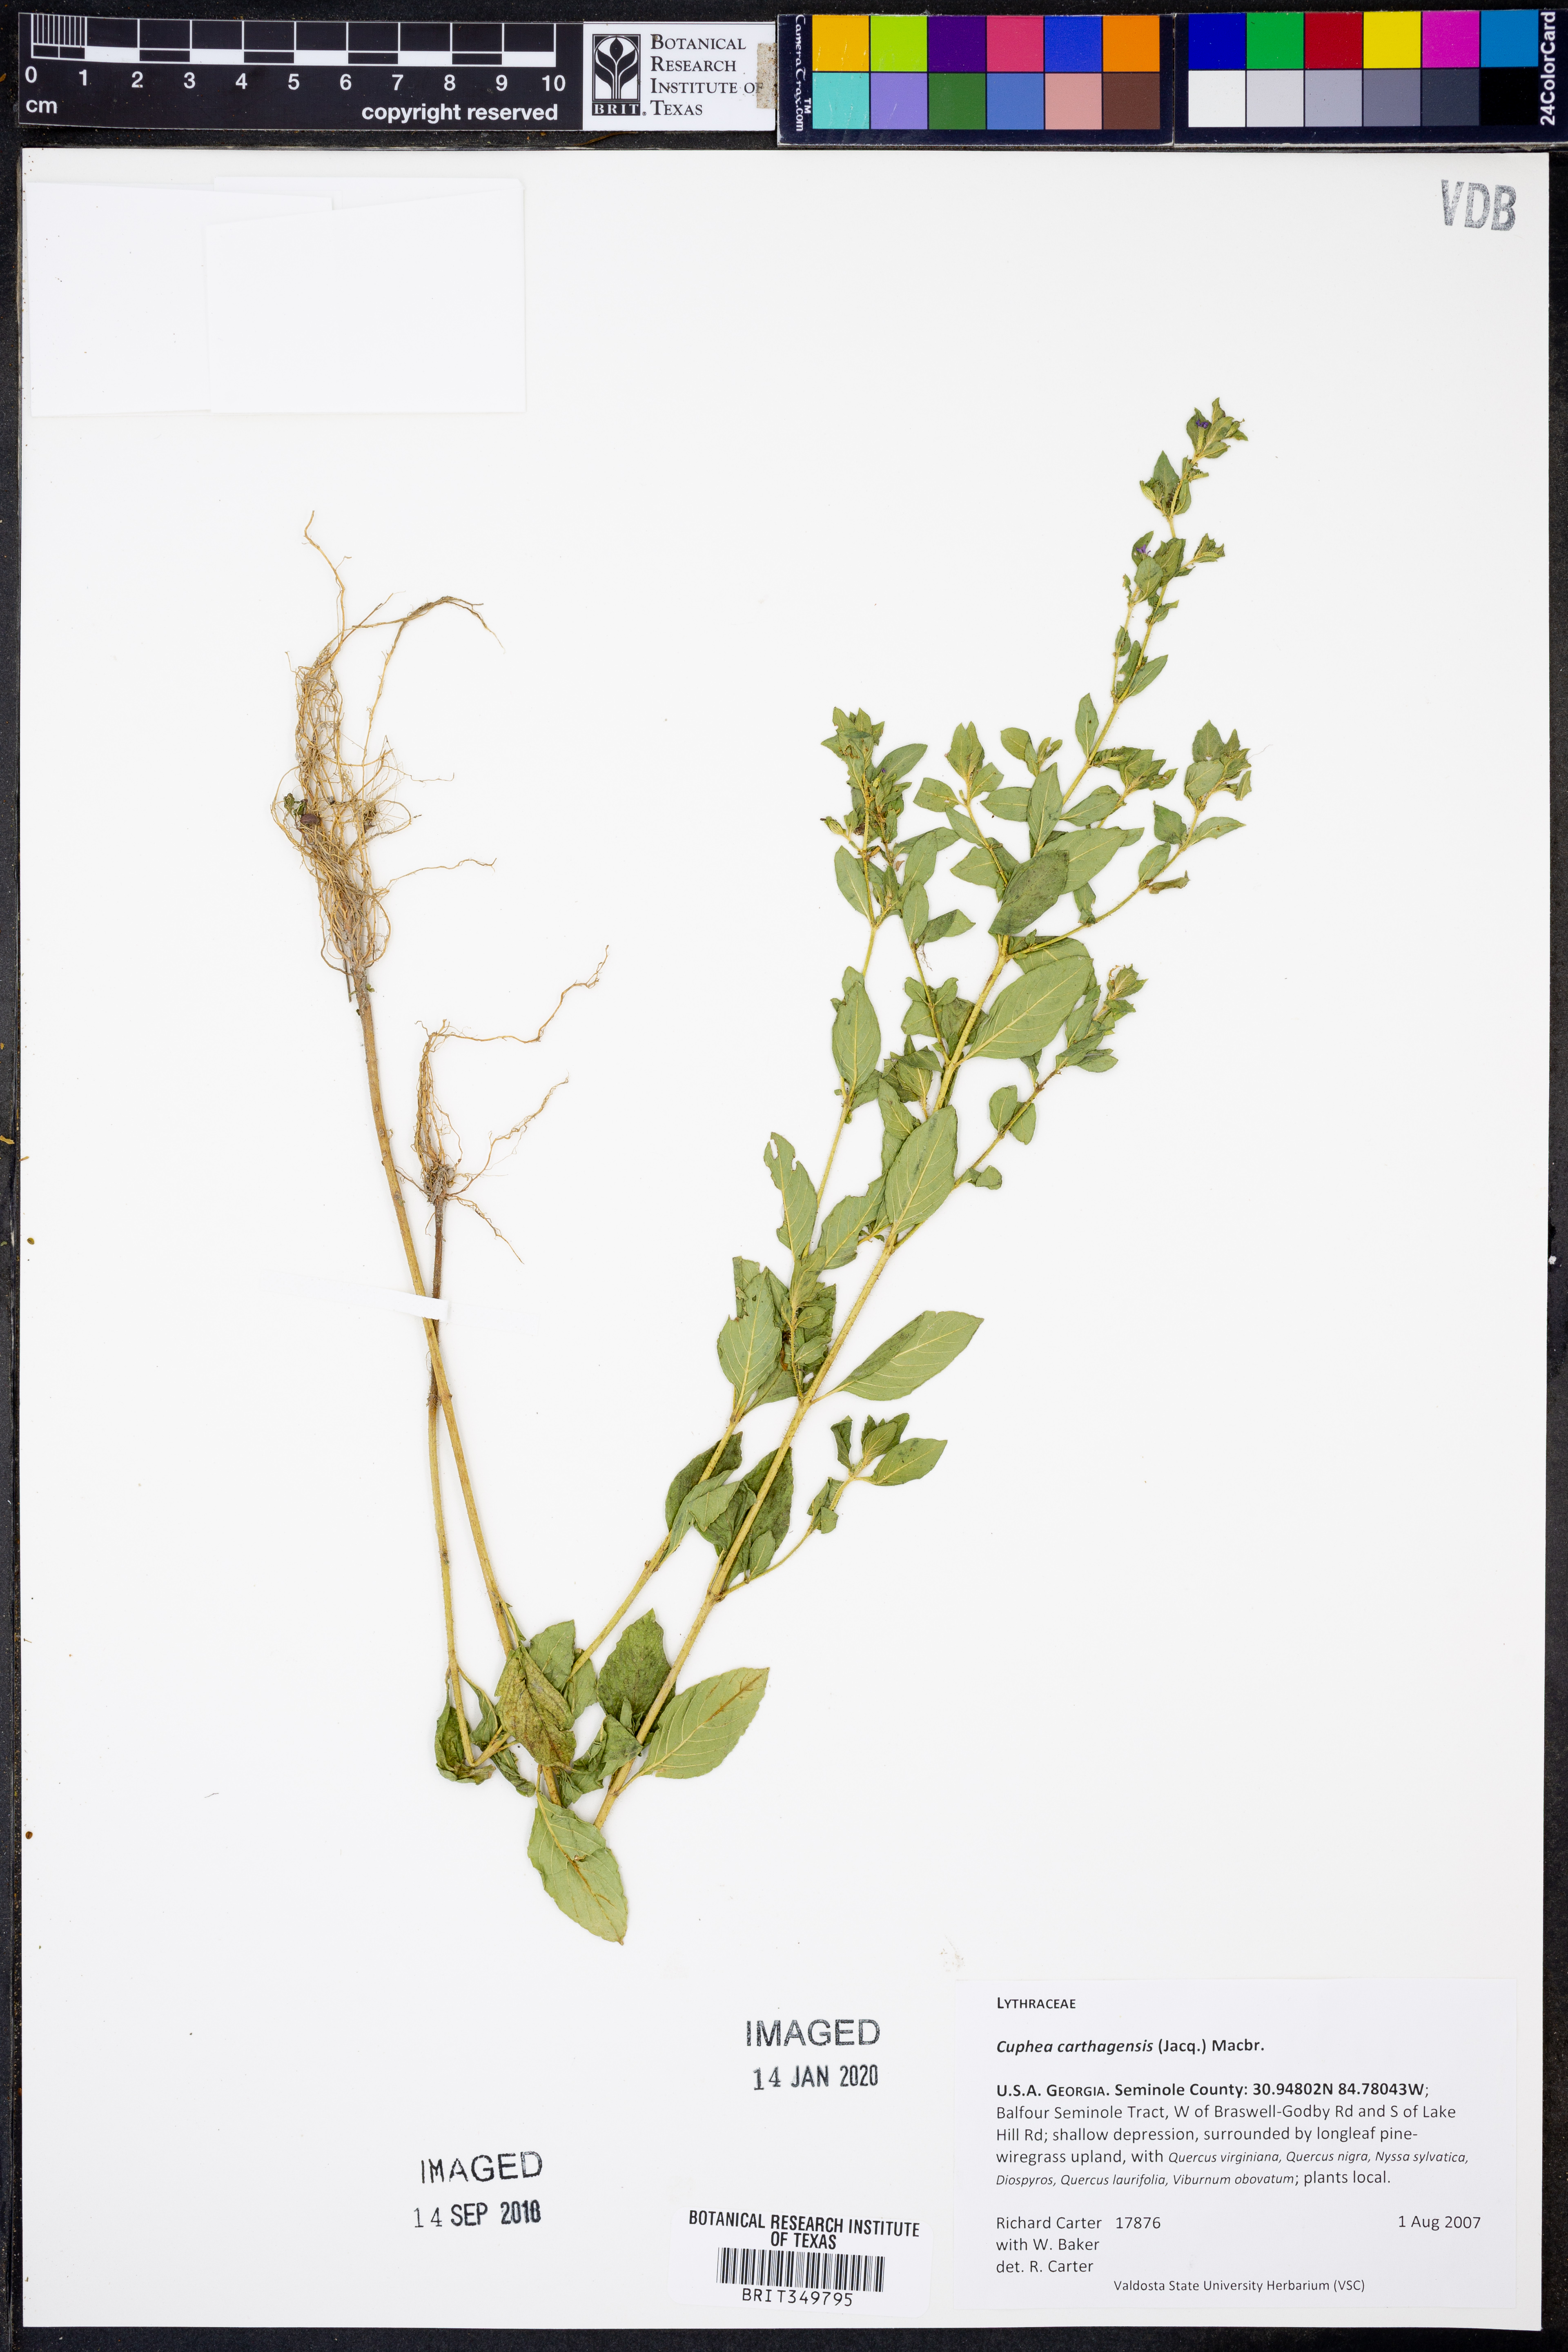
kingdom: Plantae
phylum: Tracheophyta
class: Magnoliopsida
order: Myrtales
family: Lythraceae
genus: Cuphea
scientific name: Cuphea carthagenensis
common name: Colombian waxweed
